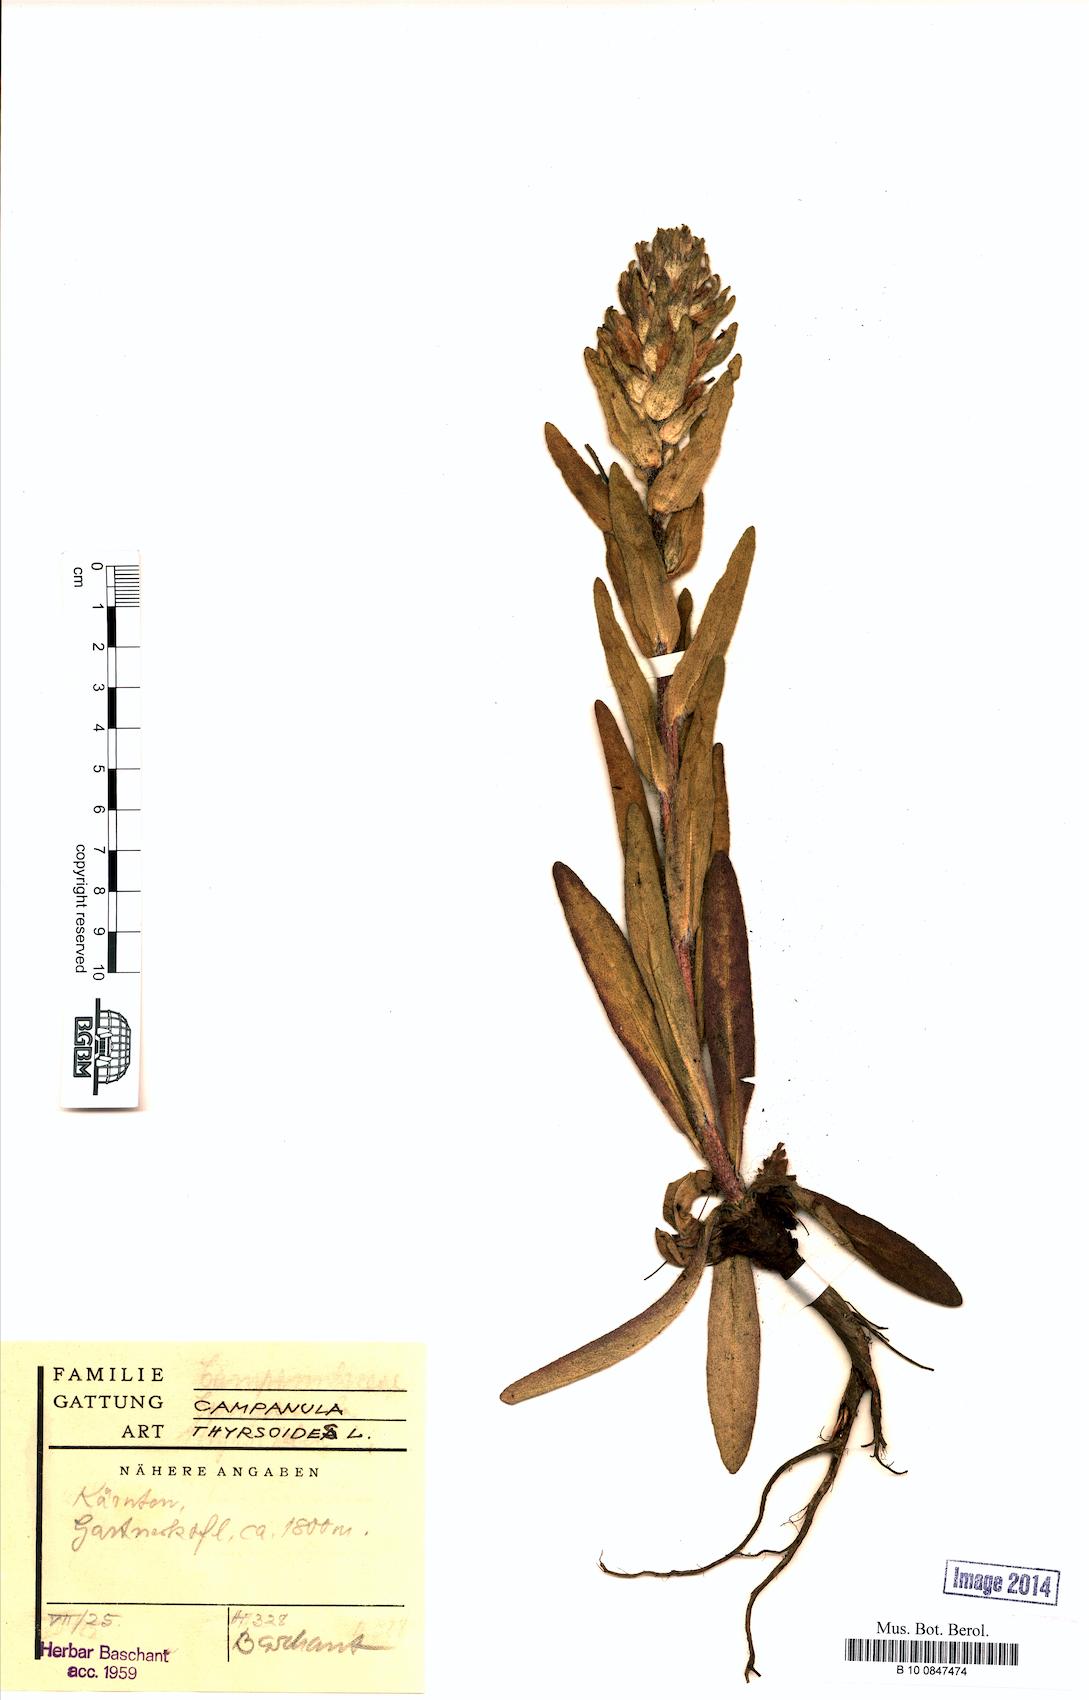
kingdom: Plantae
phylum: Tracheophyta
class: Magnoliopsida
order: Asterales
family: Campanulaceae
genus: Campanula
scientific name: Campanula thyrsoides
